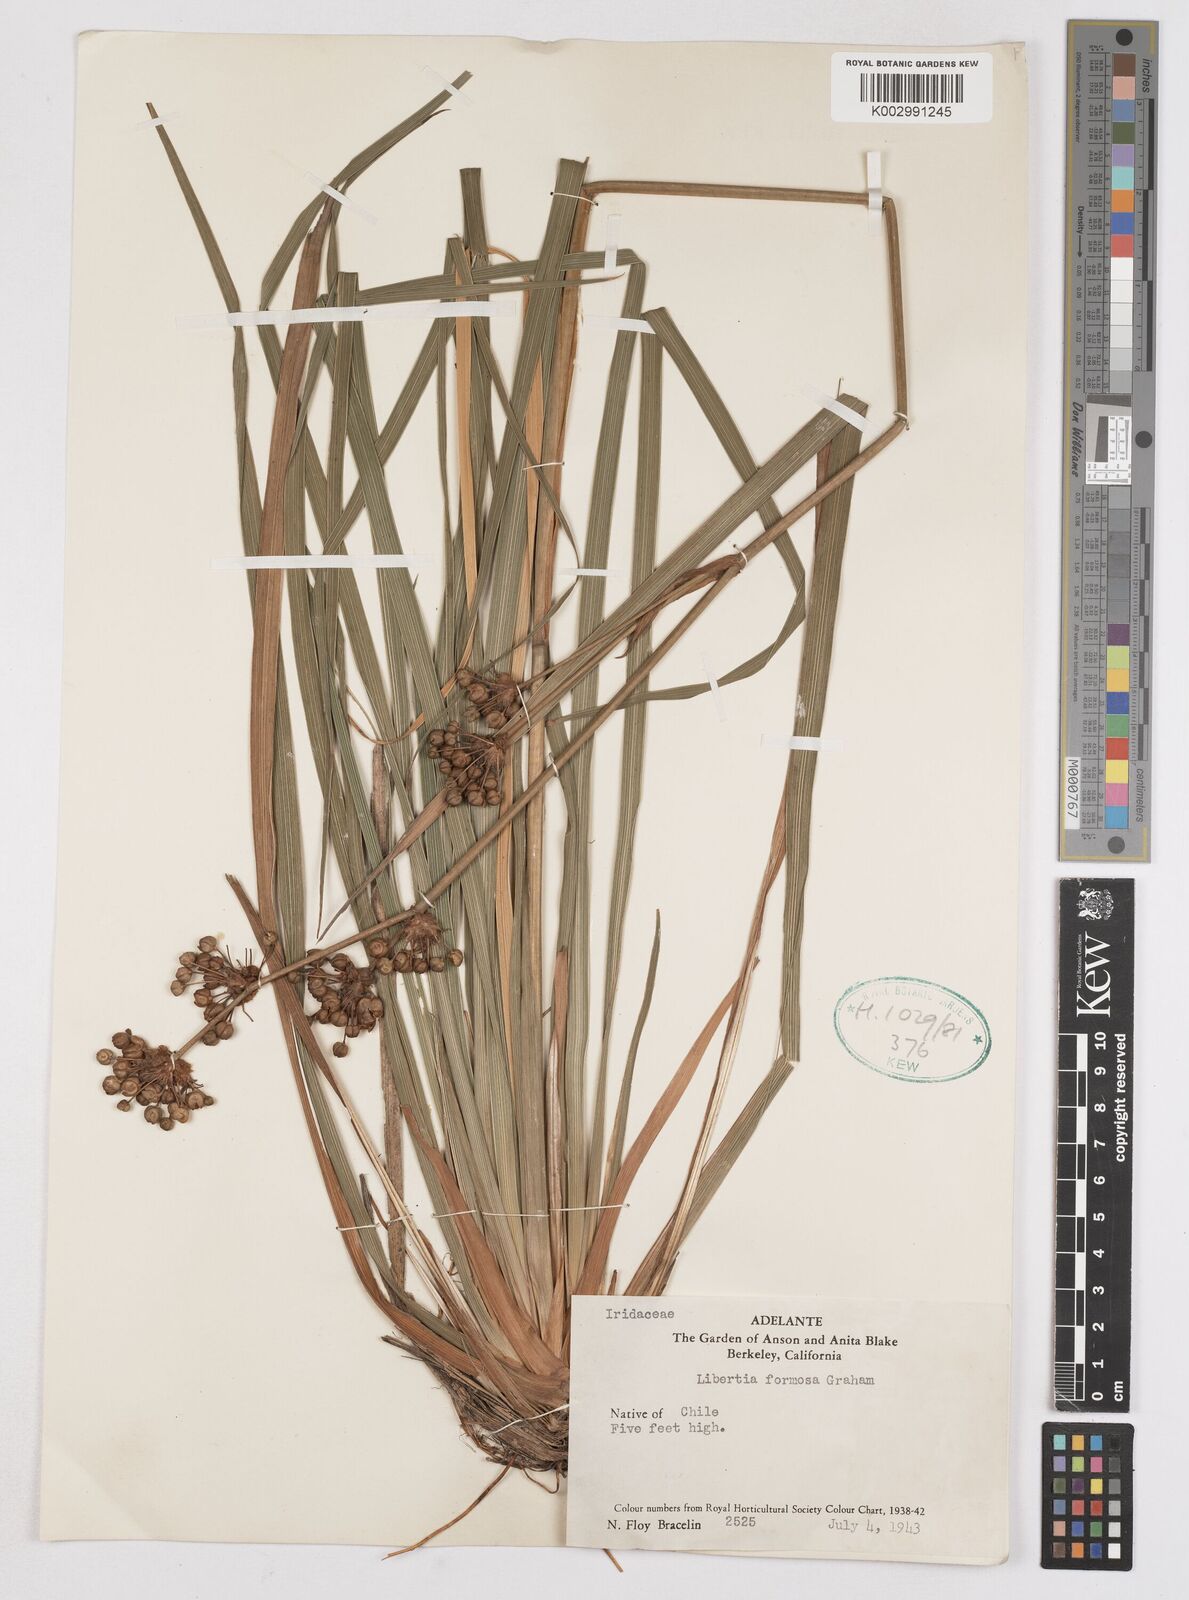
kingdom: Plantae
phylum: Tracheophyta
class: Liliopsida
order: Asparagales
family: Iridaceae
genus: Libertia
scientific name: Libertia chilensis
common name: Satin flower
